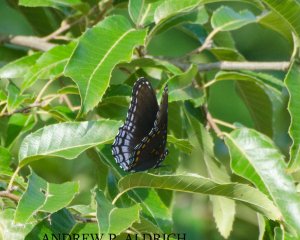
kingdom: Animalia
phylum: Arthropoda
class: Insecta
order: Lepidoptera
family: Nymphalidae
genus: Limenitis
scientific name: Limenitis astyanax
